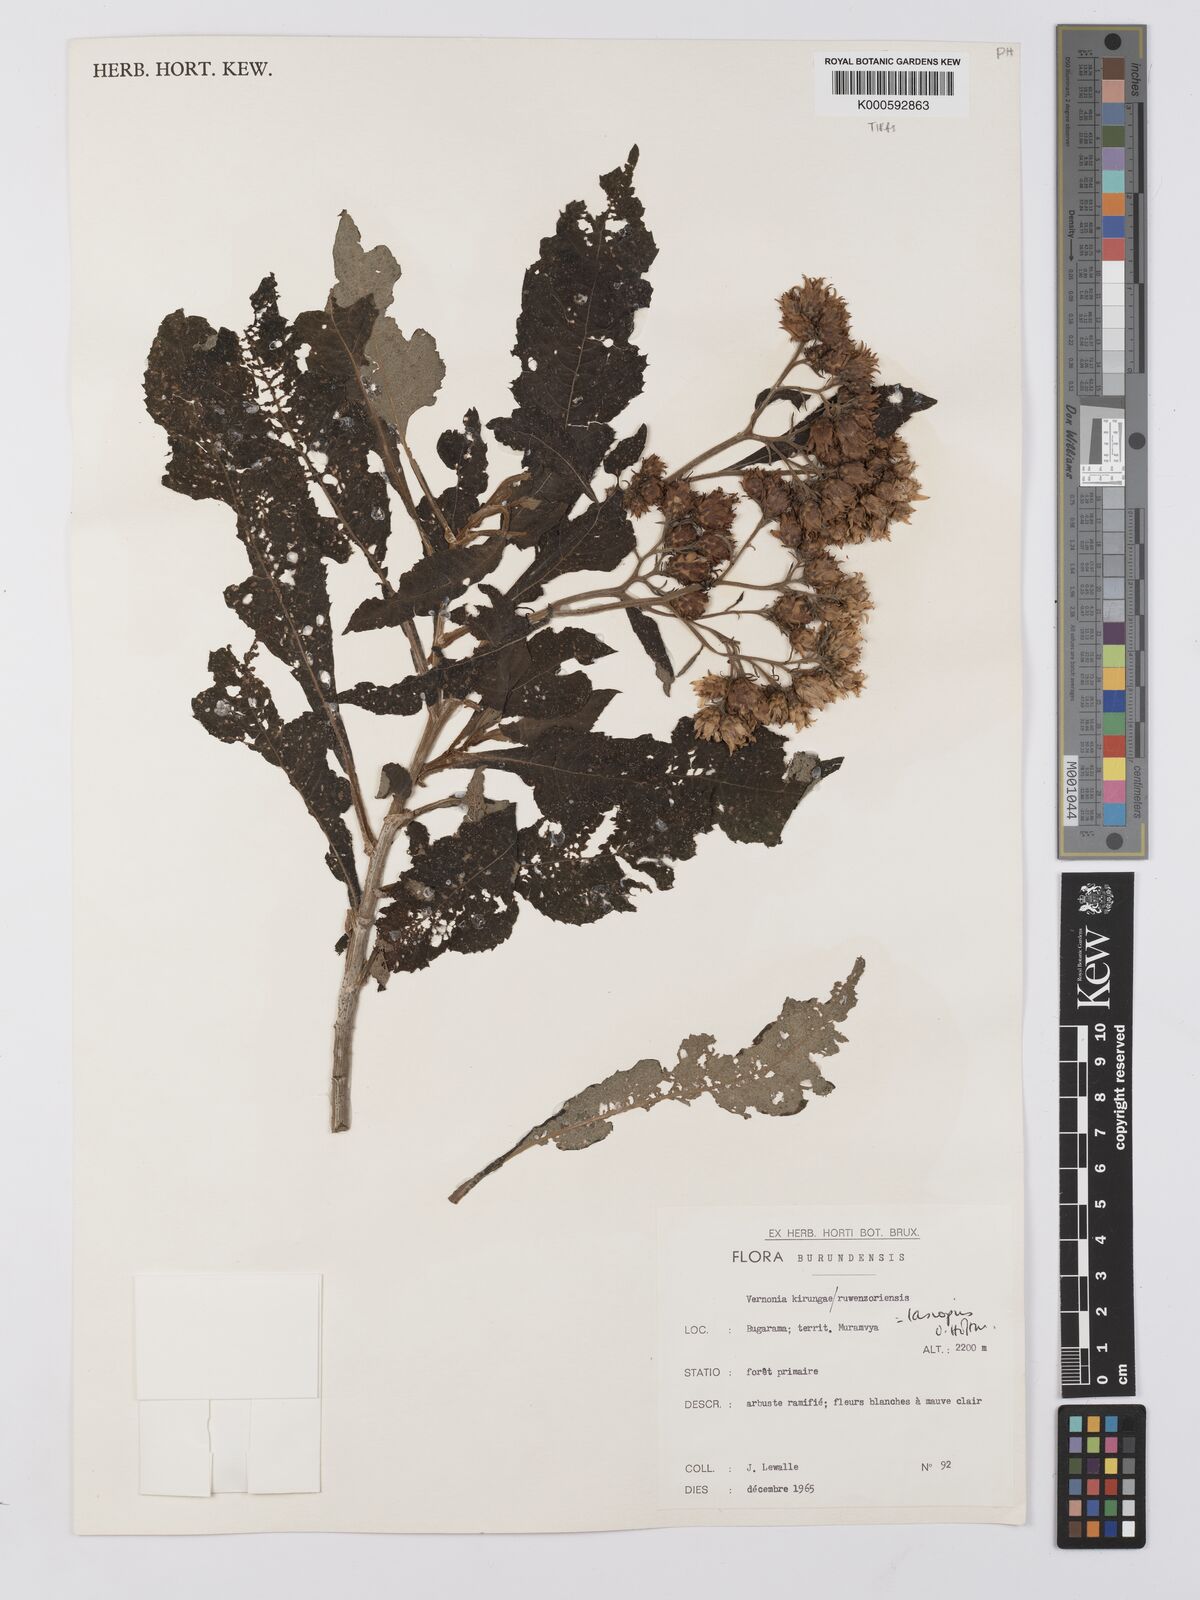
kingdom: Plantae
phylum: Tracheophyta
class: Magnoliopsida
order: Asterales
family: Asteraceae
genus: Baccharoides
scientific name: Baccharoides kirungae
